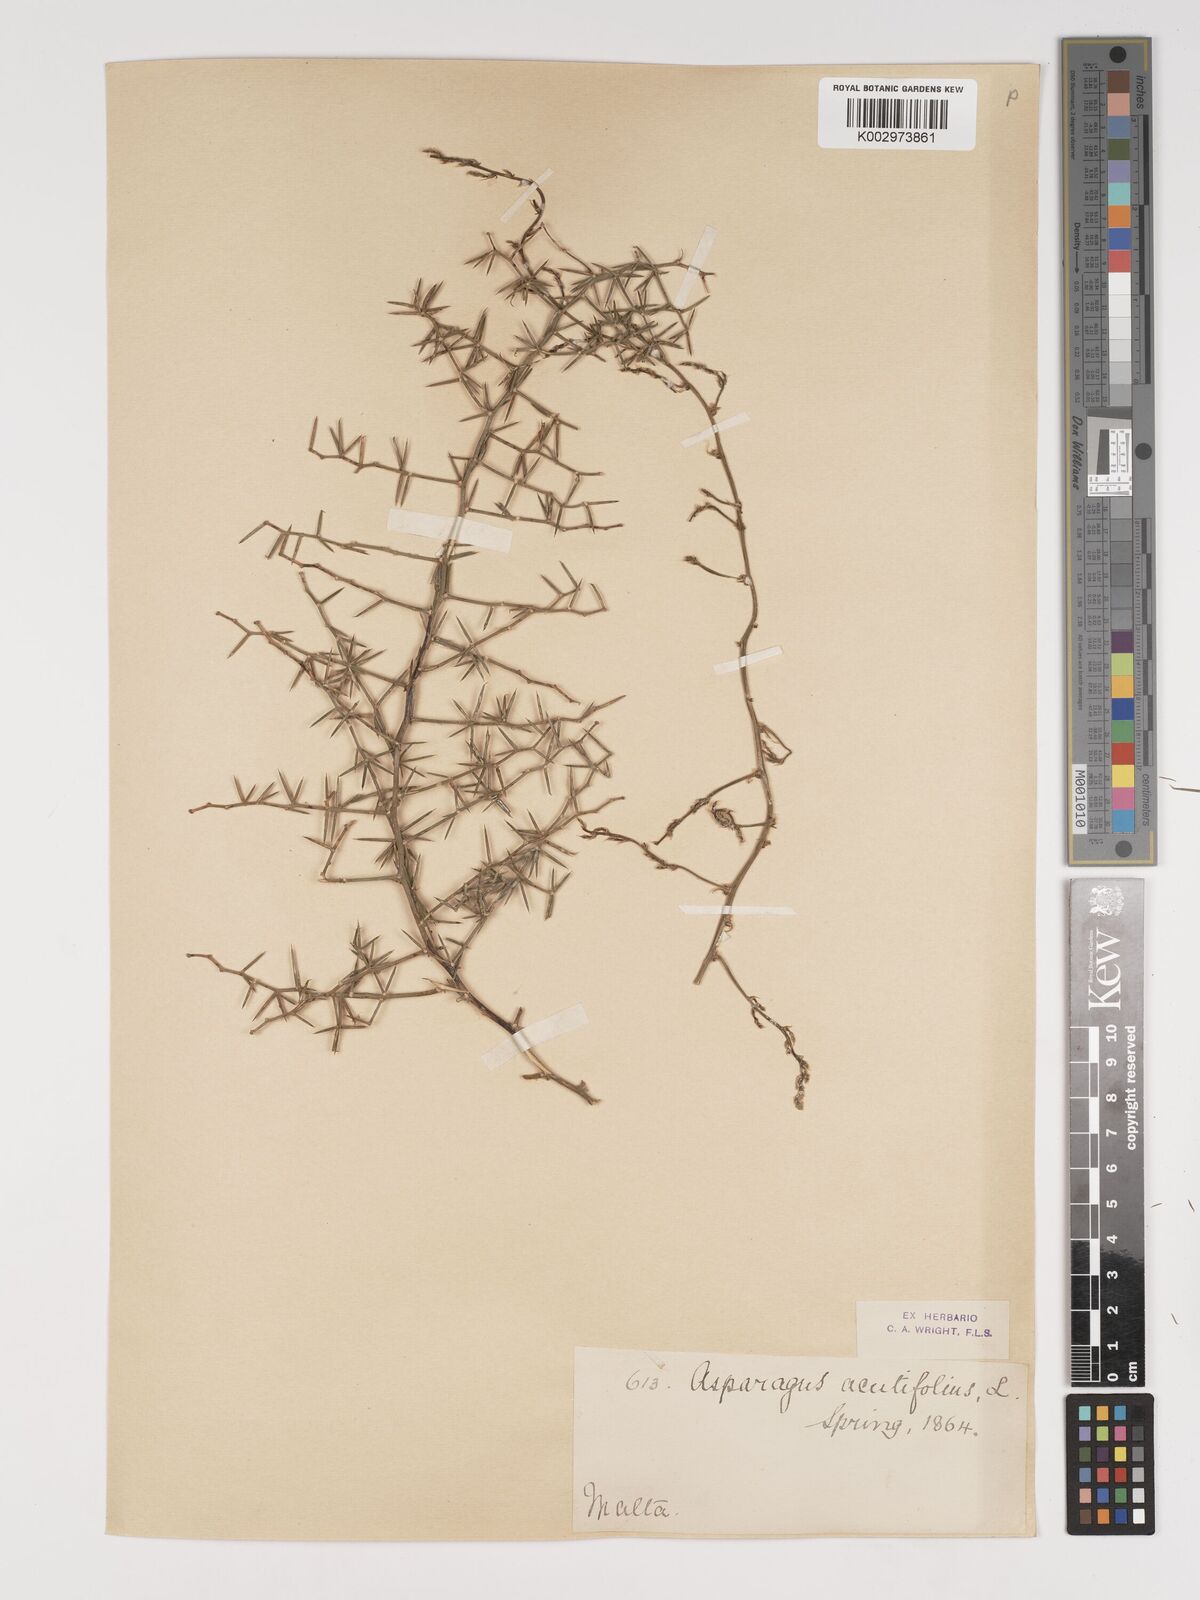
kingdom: Plantae
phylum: Tracheophyta
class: Liliopsida
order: Asparagales
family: Asparagaceae
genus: Asparagus
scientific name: Asparagus acutifolius
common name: Wild asparagus
